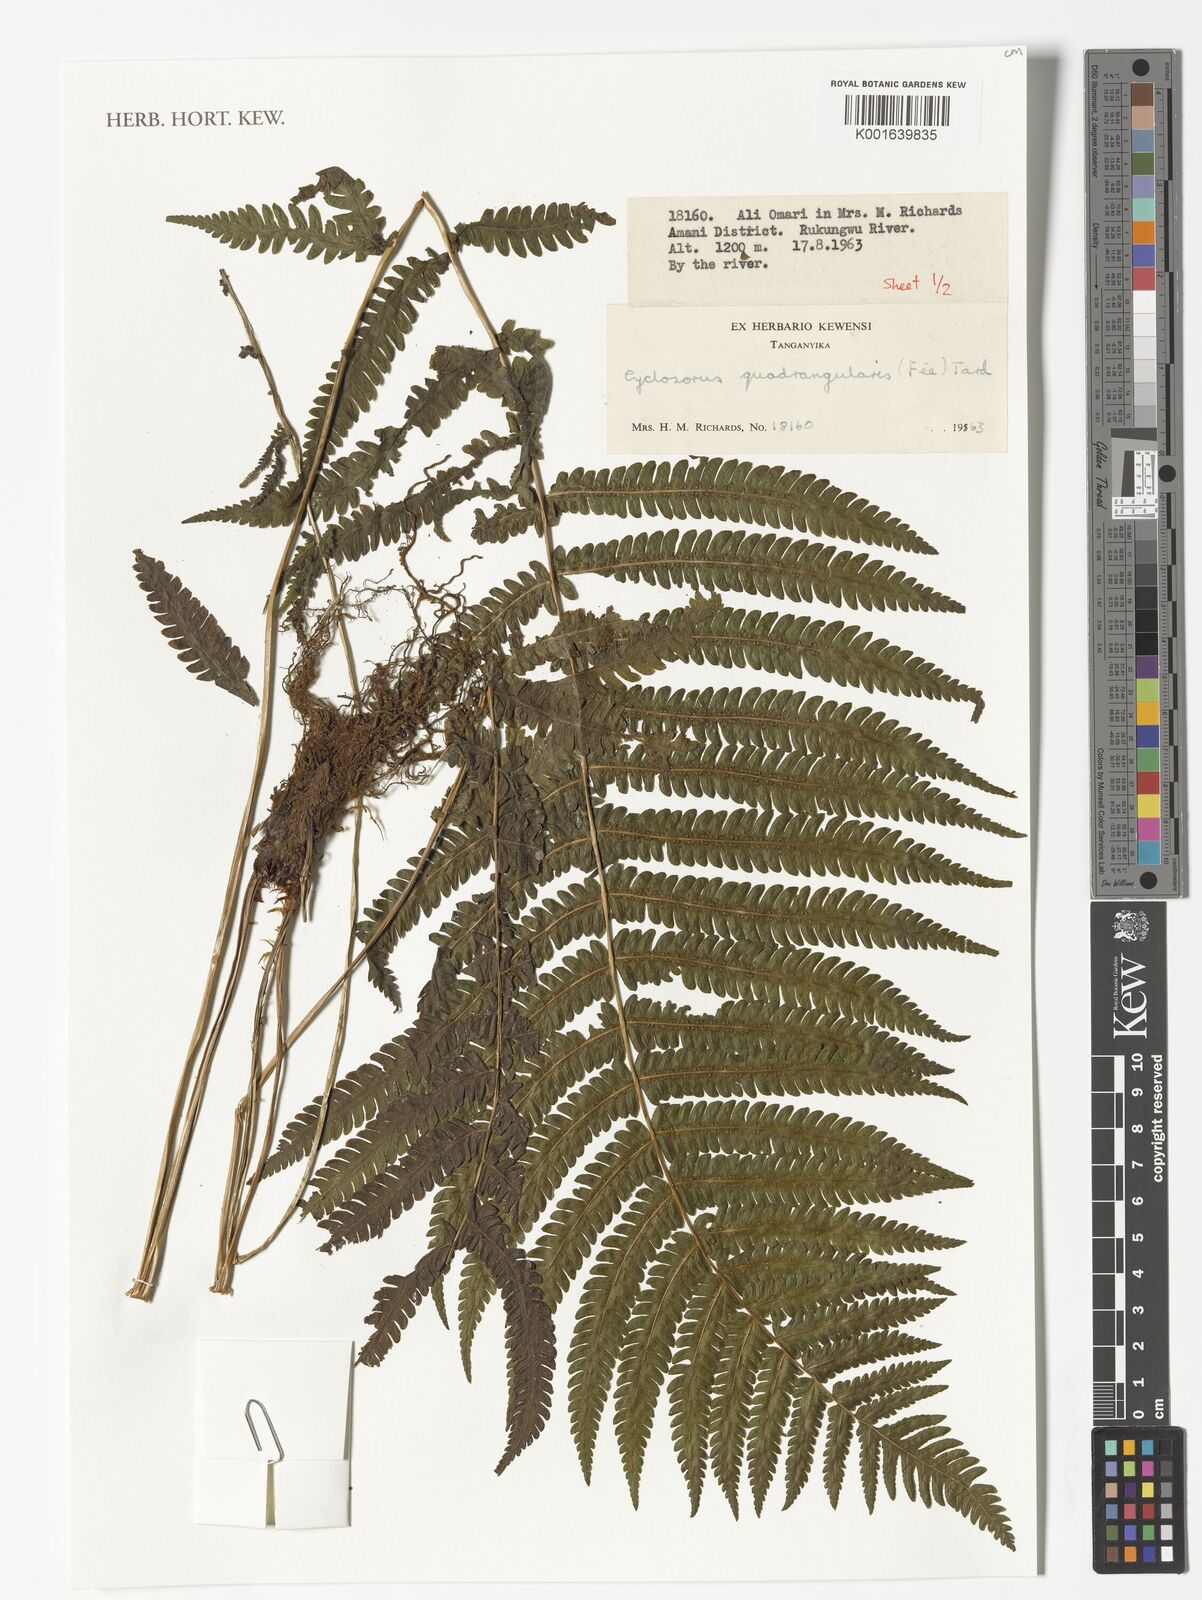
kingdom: Plantae
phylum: Tracheophyta
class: Polypodiopsida
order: Polypodiales
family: Thelypteridaceae
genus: Christella
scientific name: Christella hispidula
